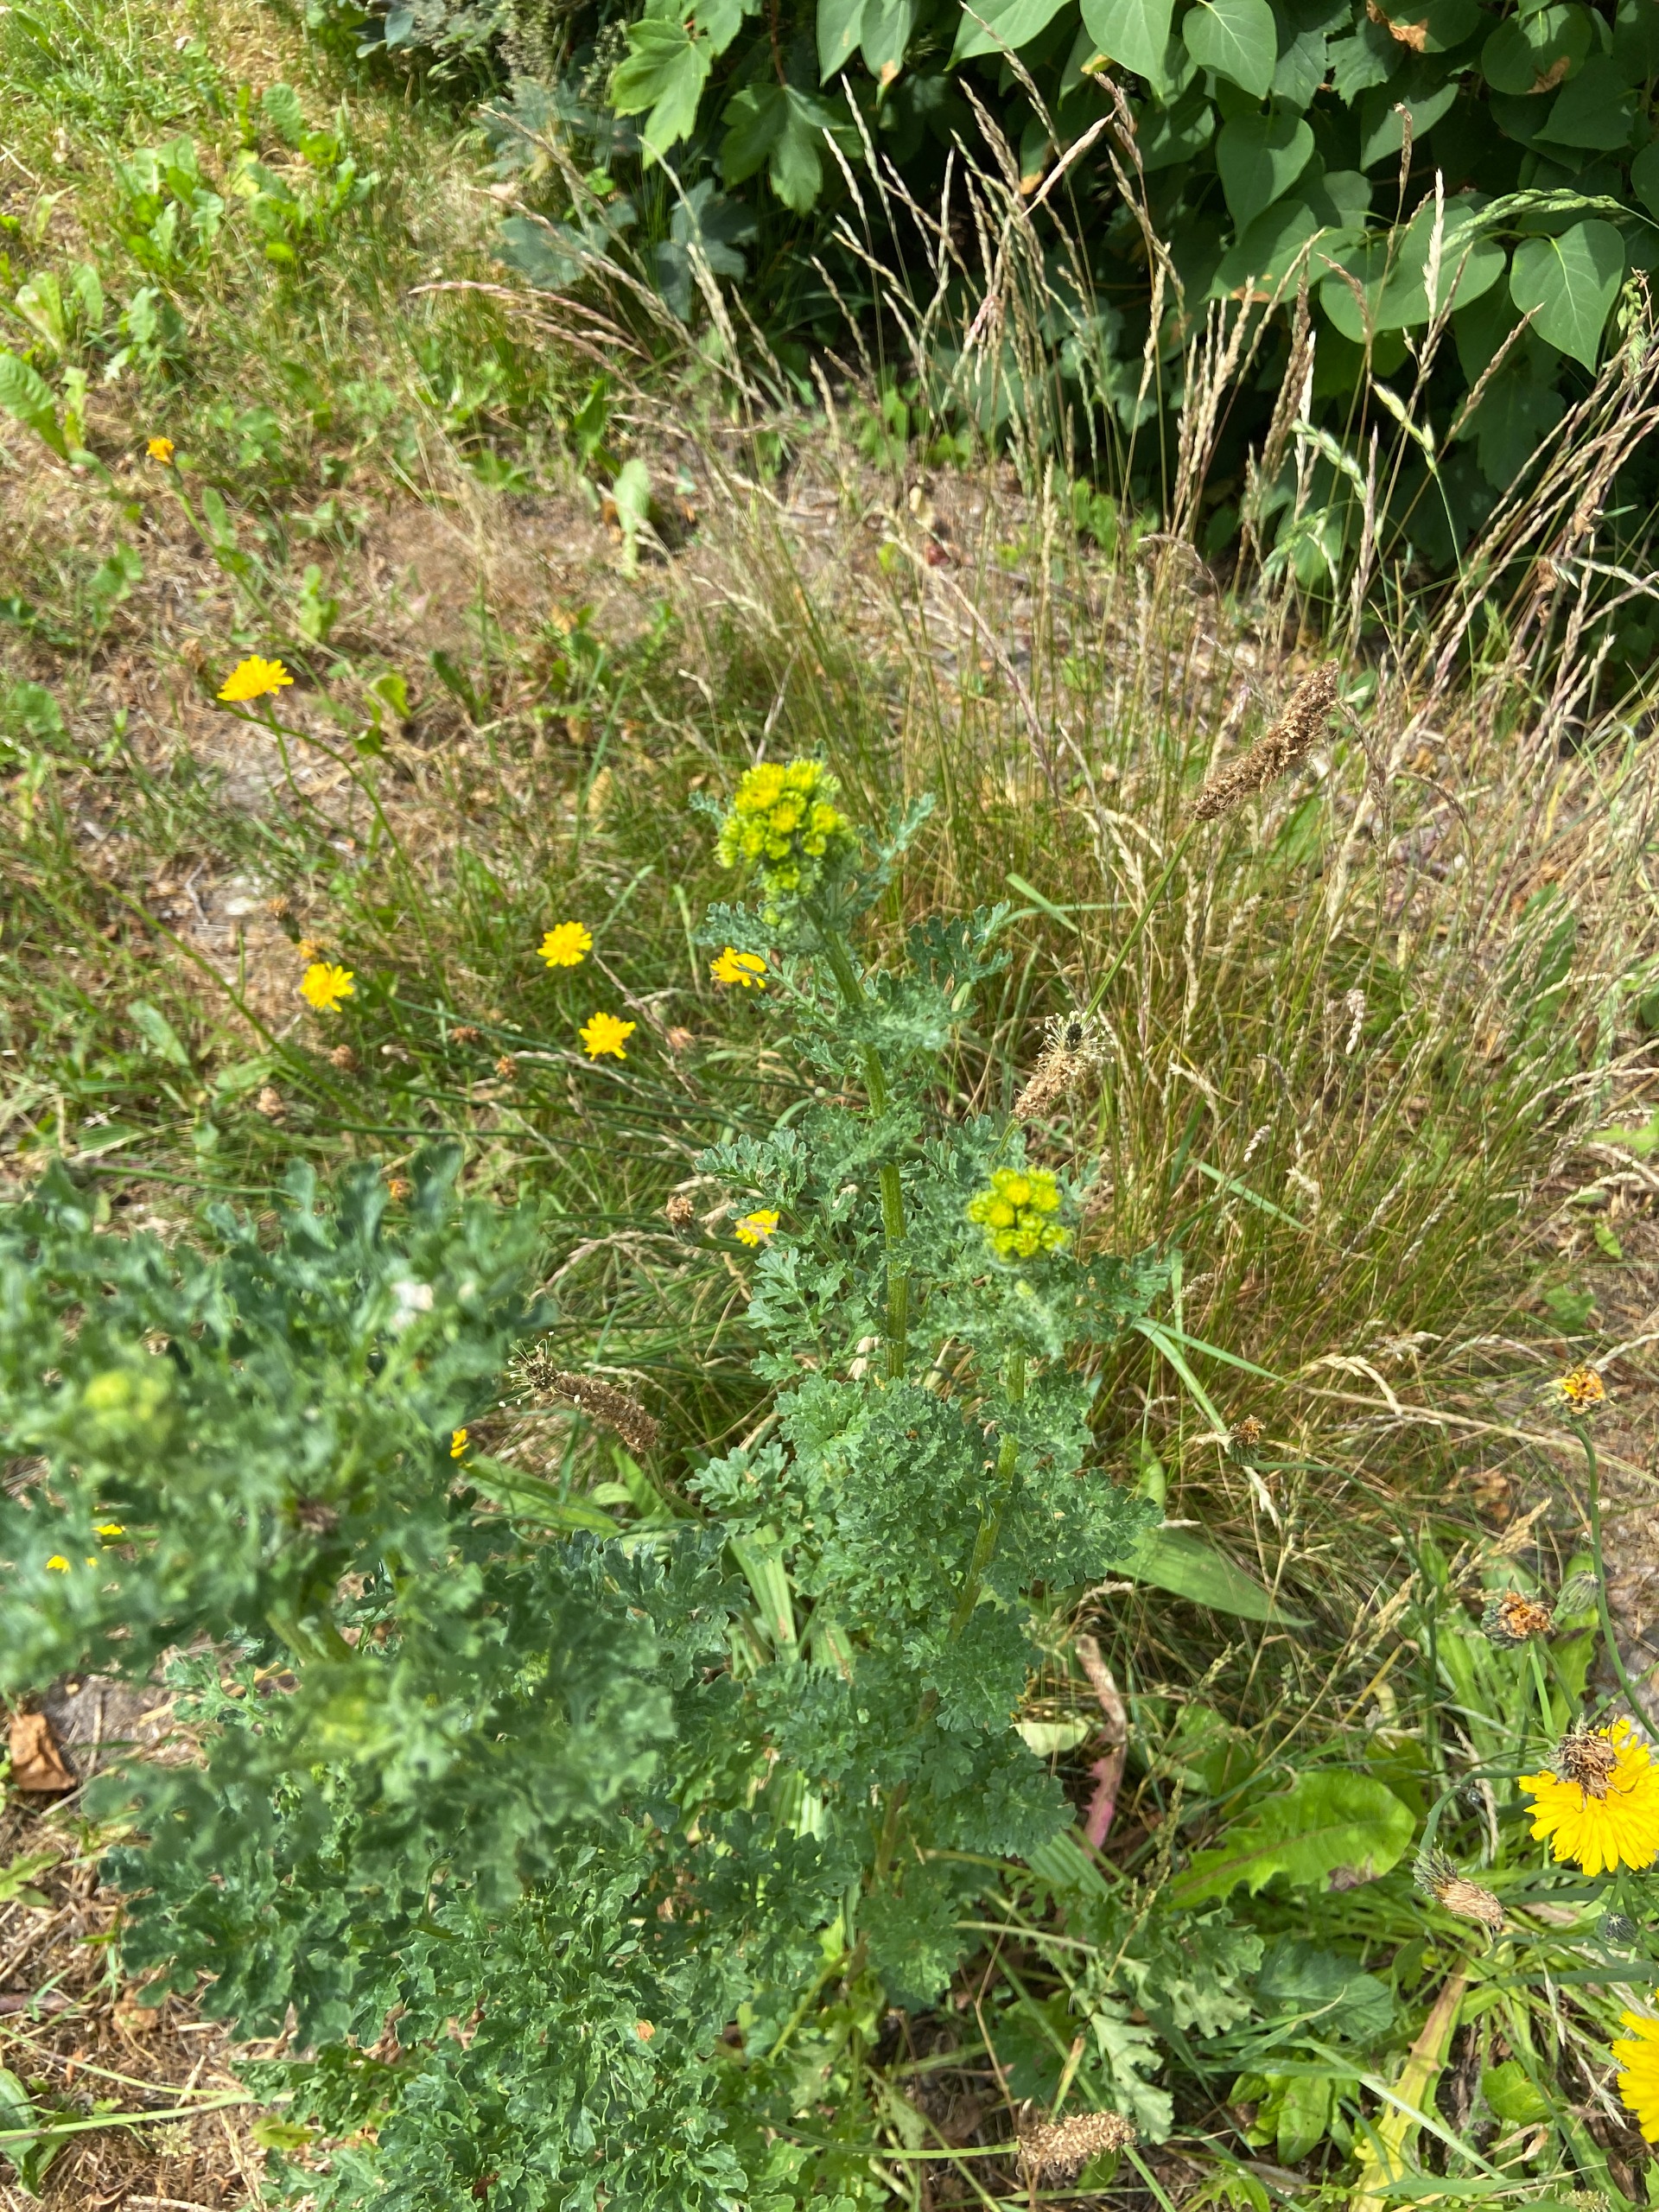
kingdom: Plantae
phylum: Tracheophyta
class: Magnoliopsida
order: Asterales
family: Asteraceae
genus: Jacobaea
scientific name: Jacobaea vulgaris
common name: Eng-brandbæger
